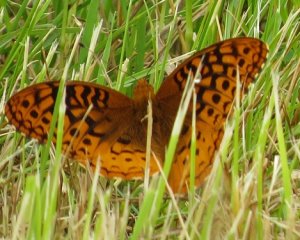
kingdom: Animalia
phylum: Arthropoda
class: Insecta
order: Lepidoptera
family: Nymphalidae
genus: Speyeria
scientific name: Speyeria cybele
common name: Great Spangled Fritillary
